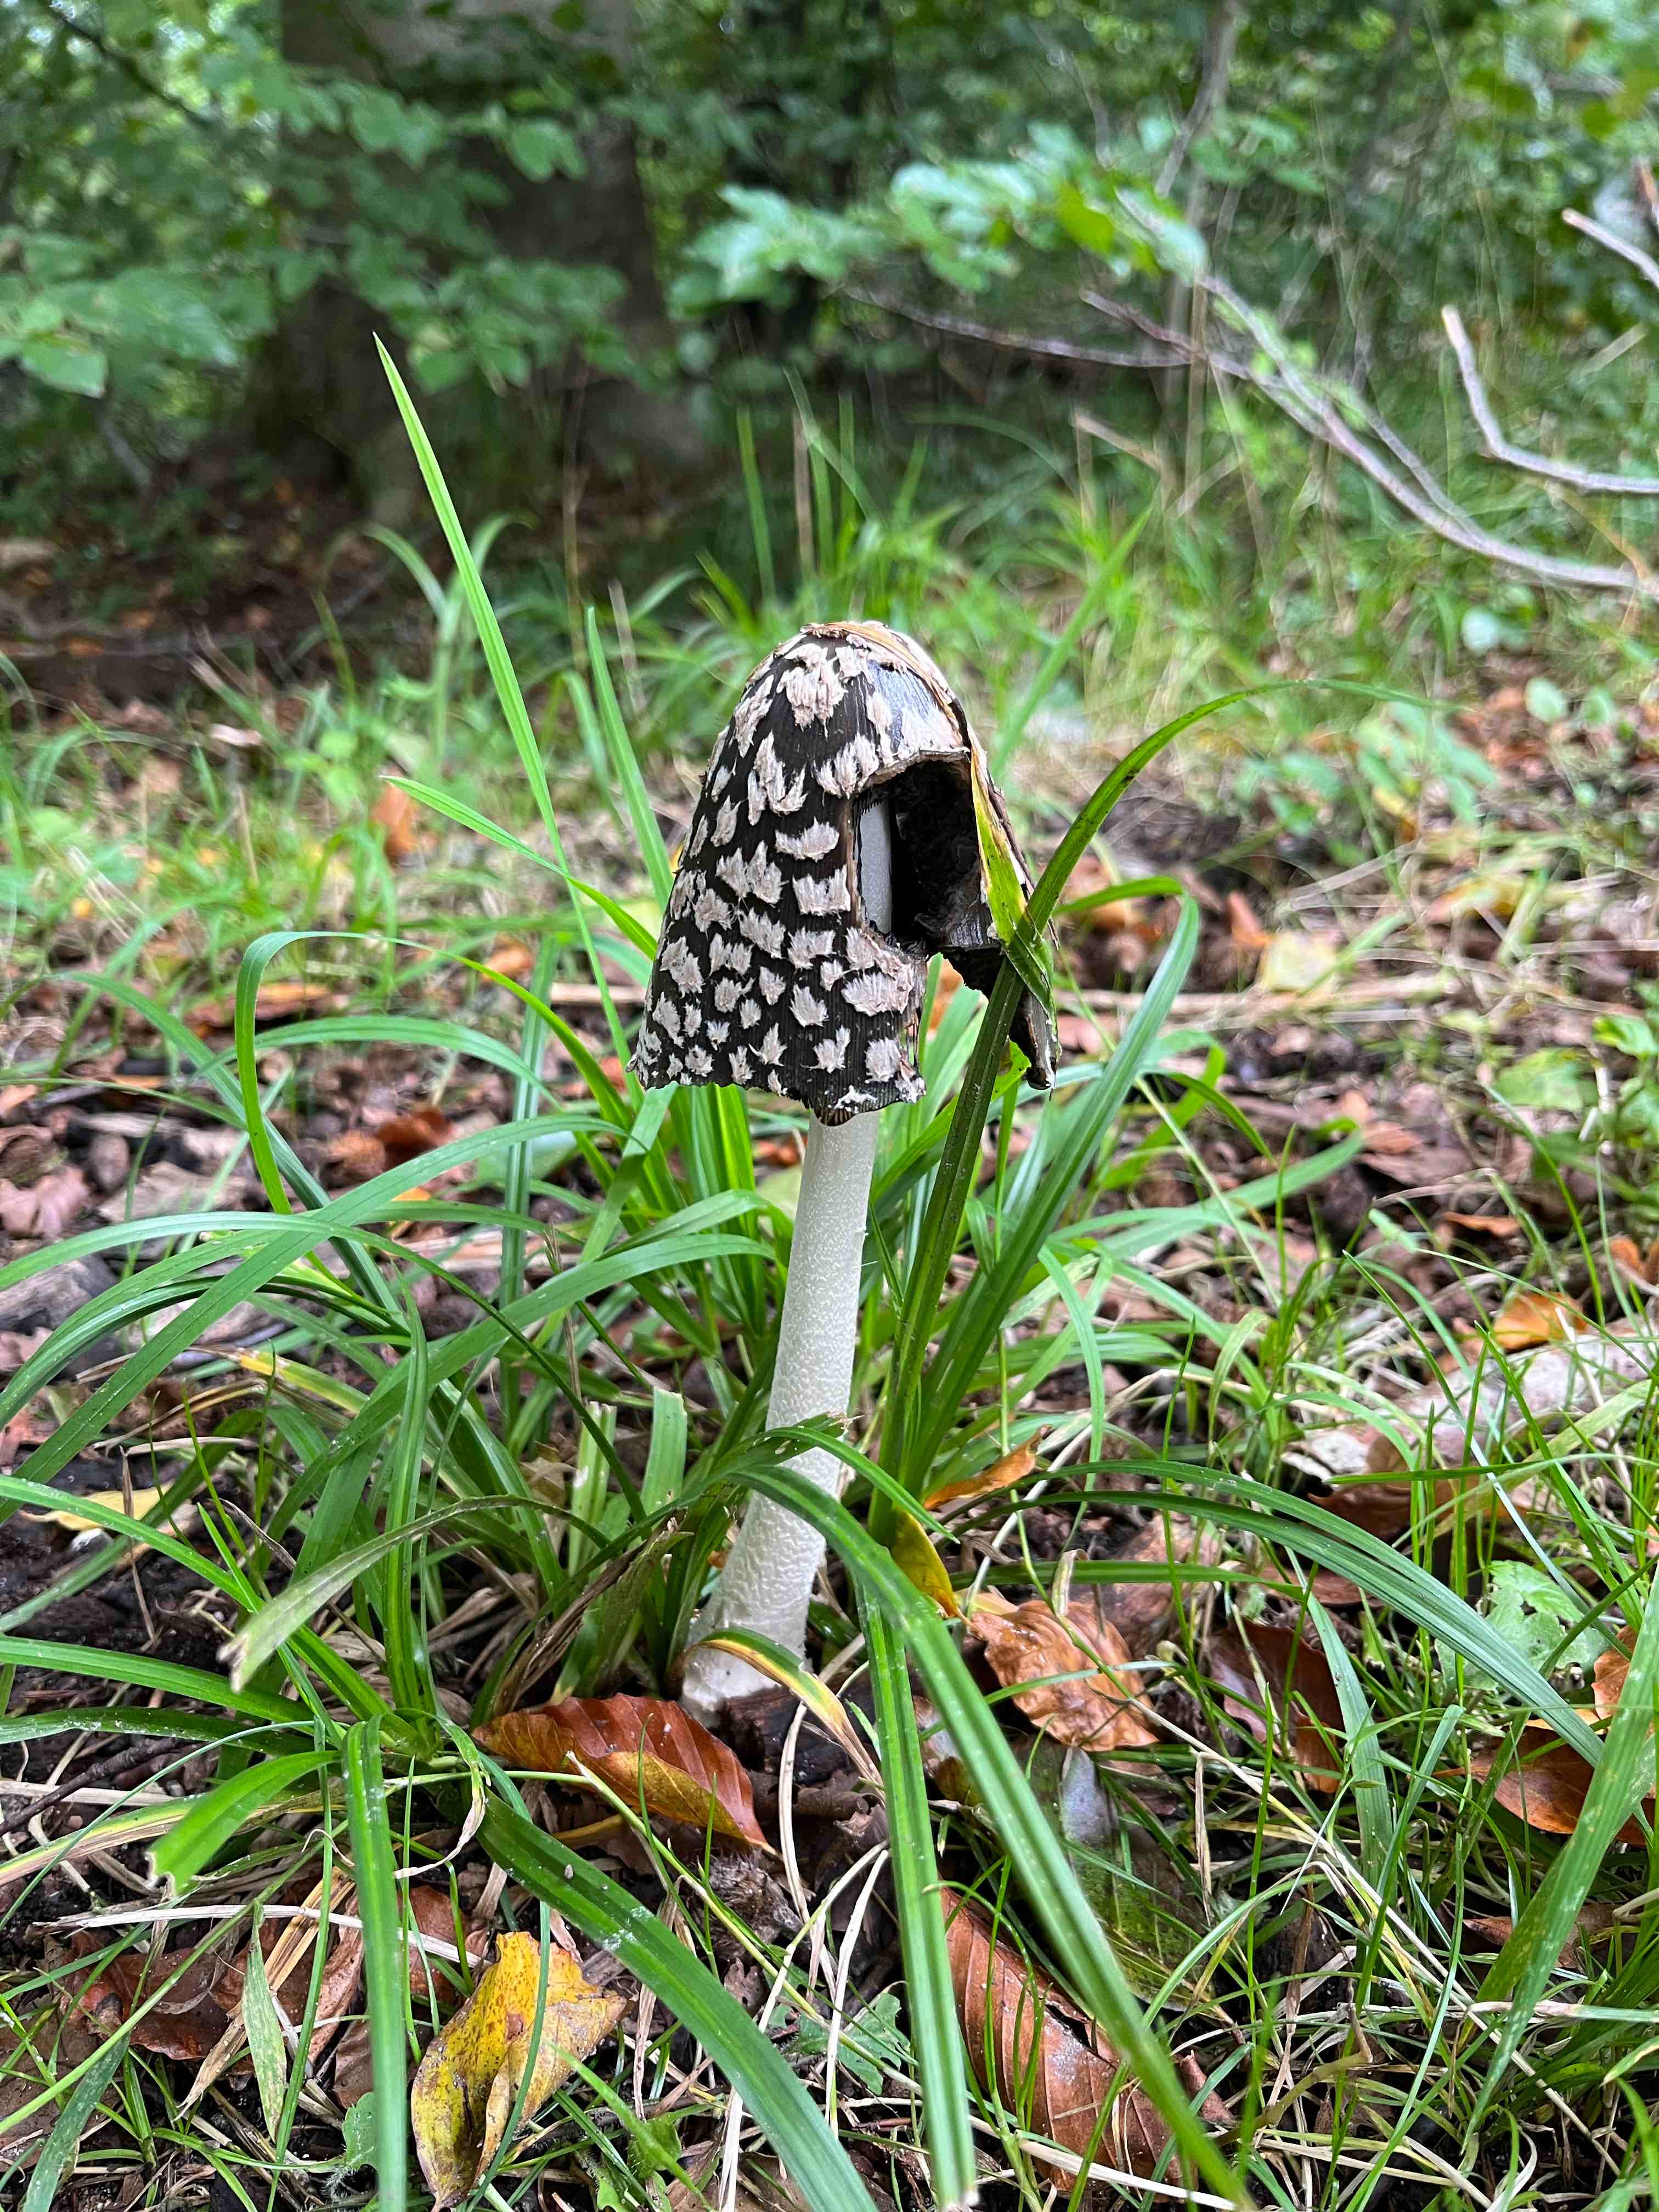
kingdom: Fungi
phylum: Basidiomycota
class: Agaricomycetes
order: Agaricales
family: Psathyrellaceae
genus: Coprinopsis
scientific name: Coprinopsis picacea
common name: skade-blækhat
